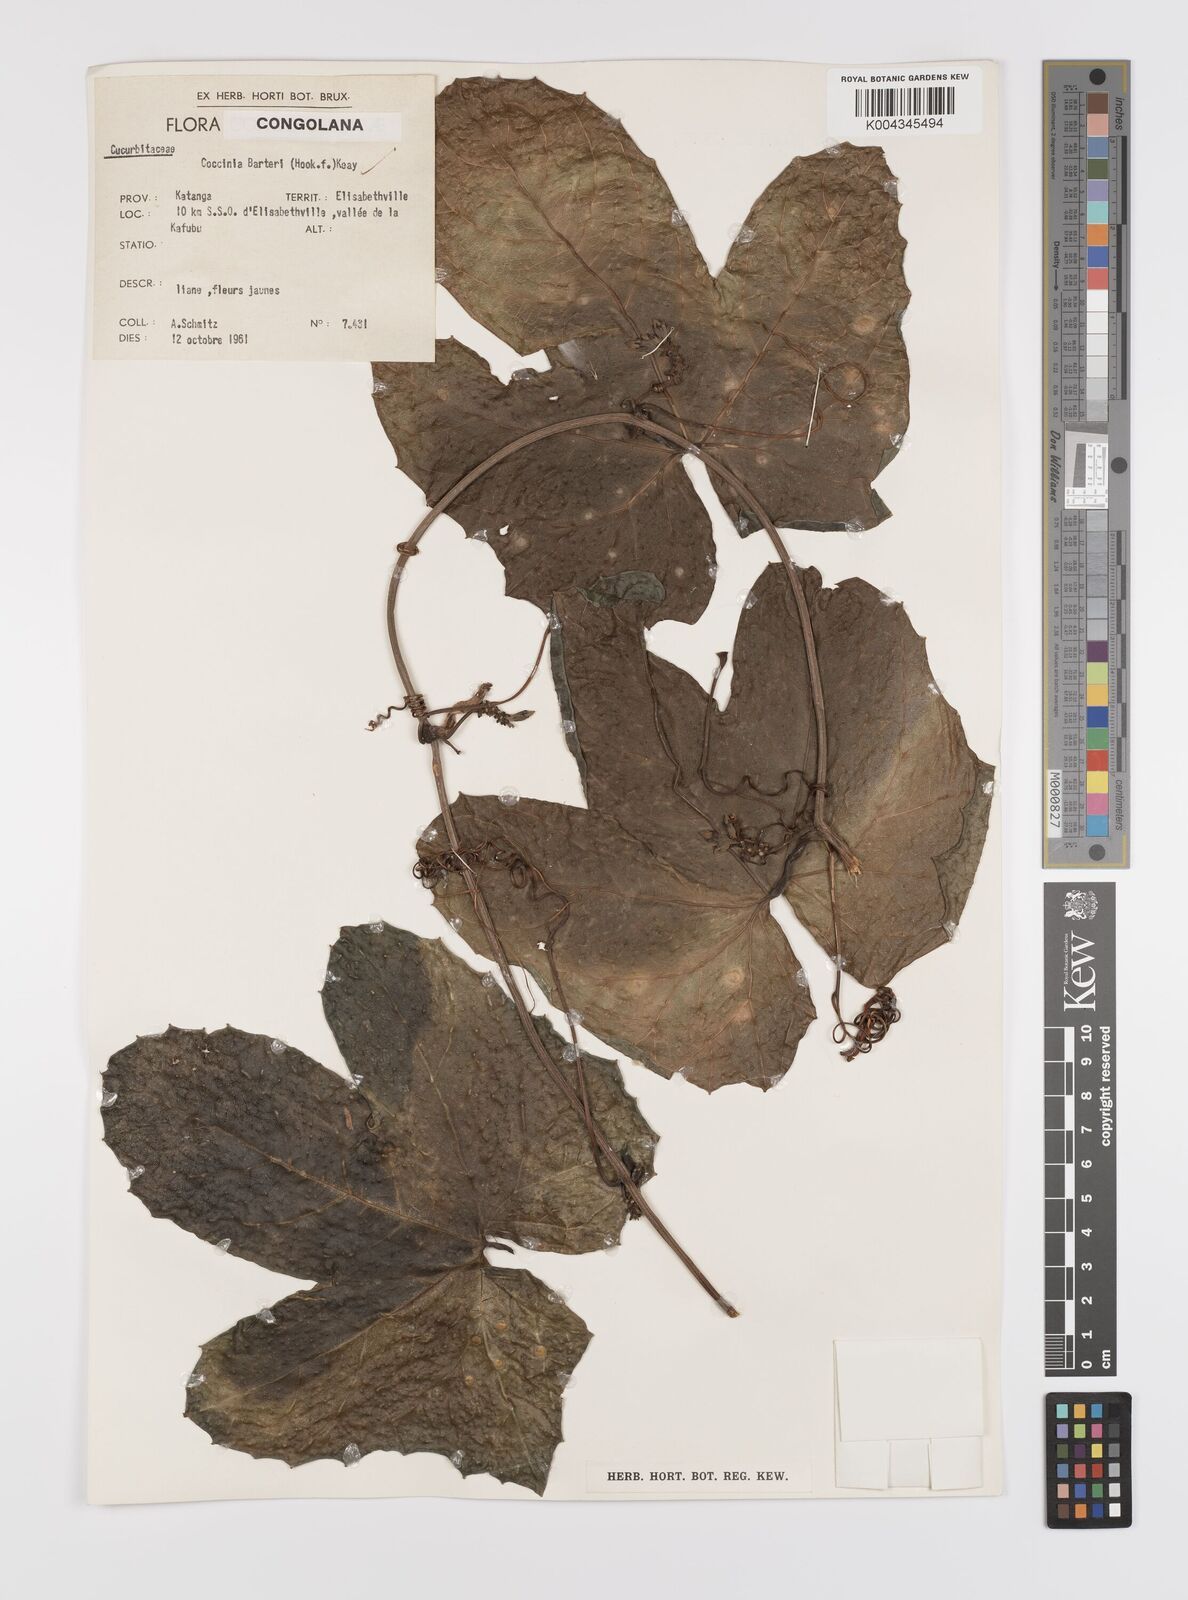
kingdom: Plantae
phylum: Tracheophyta
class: Magnoliopsida
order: Cucurbitales
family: Cucurbitaceae
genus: Coccinia
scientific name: Coccinia barteri
